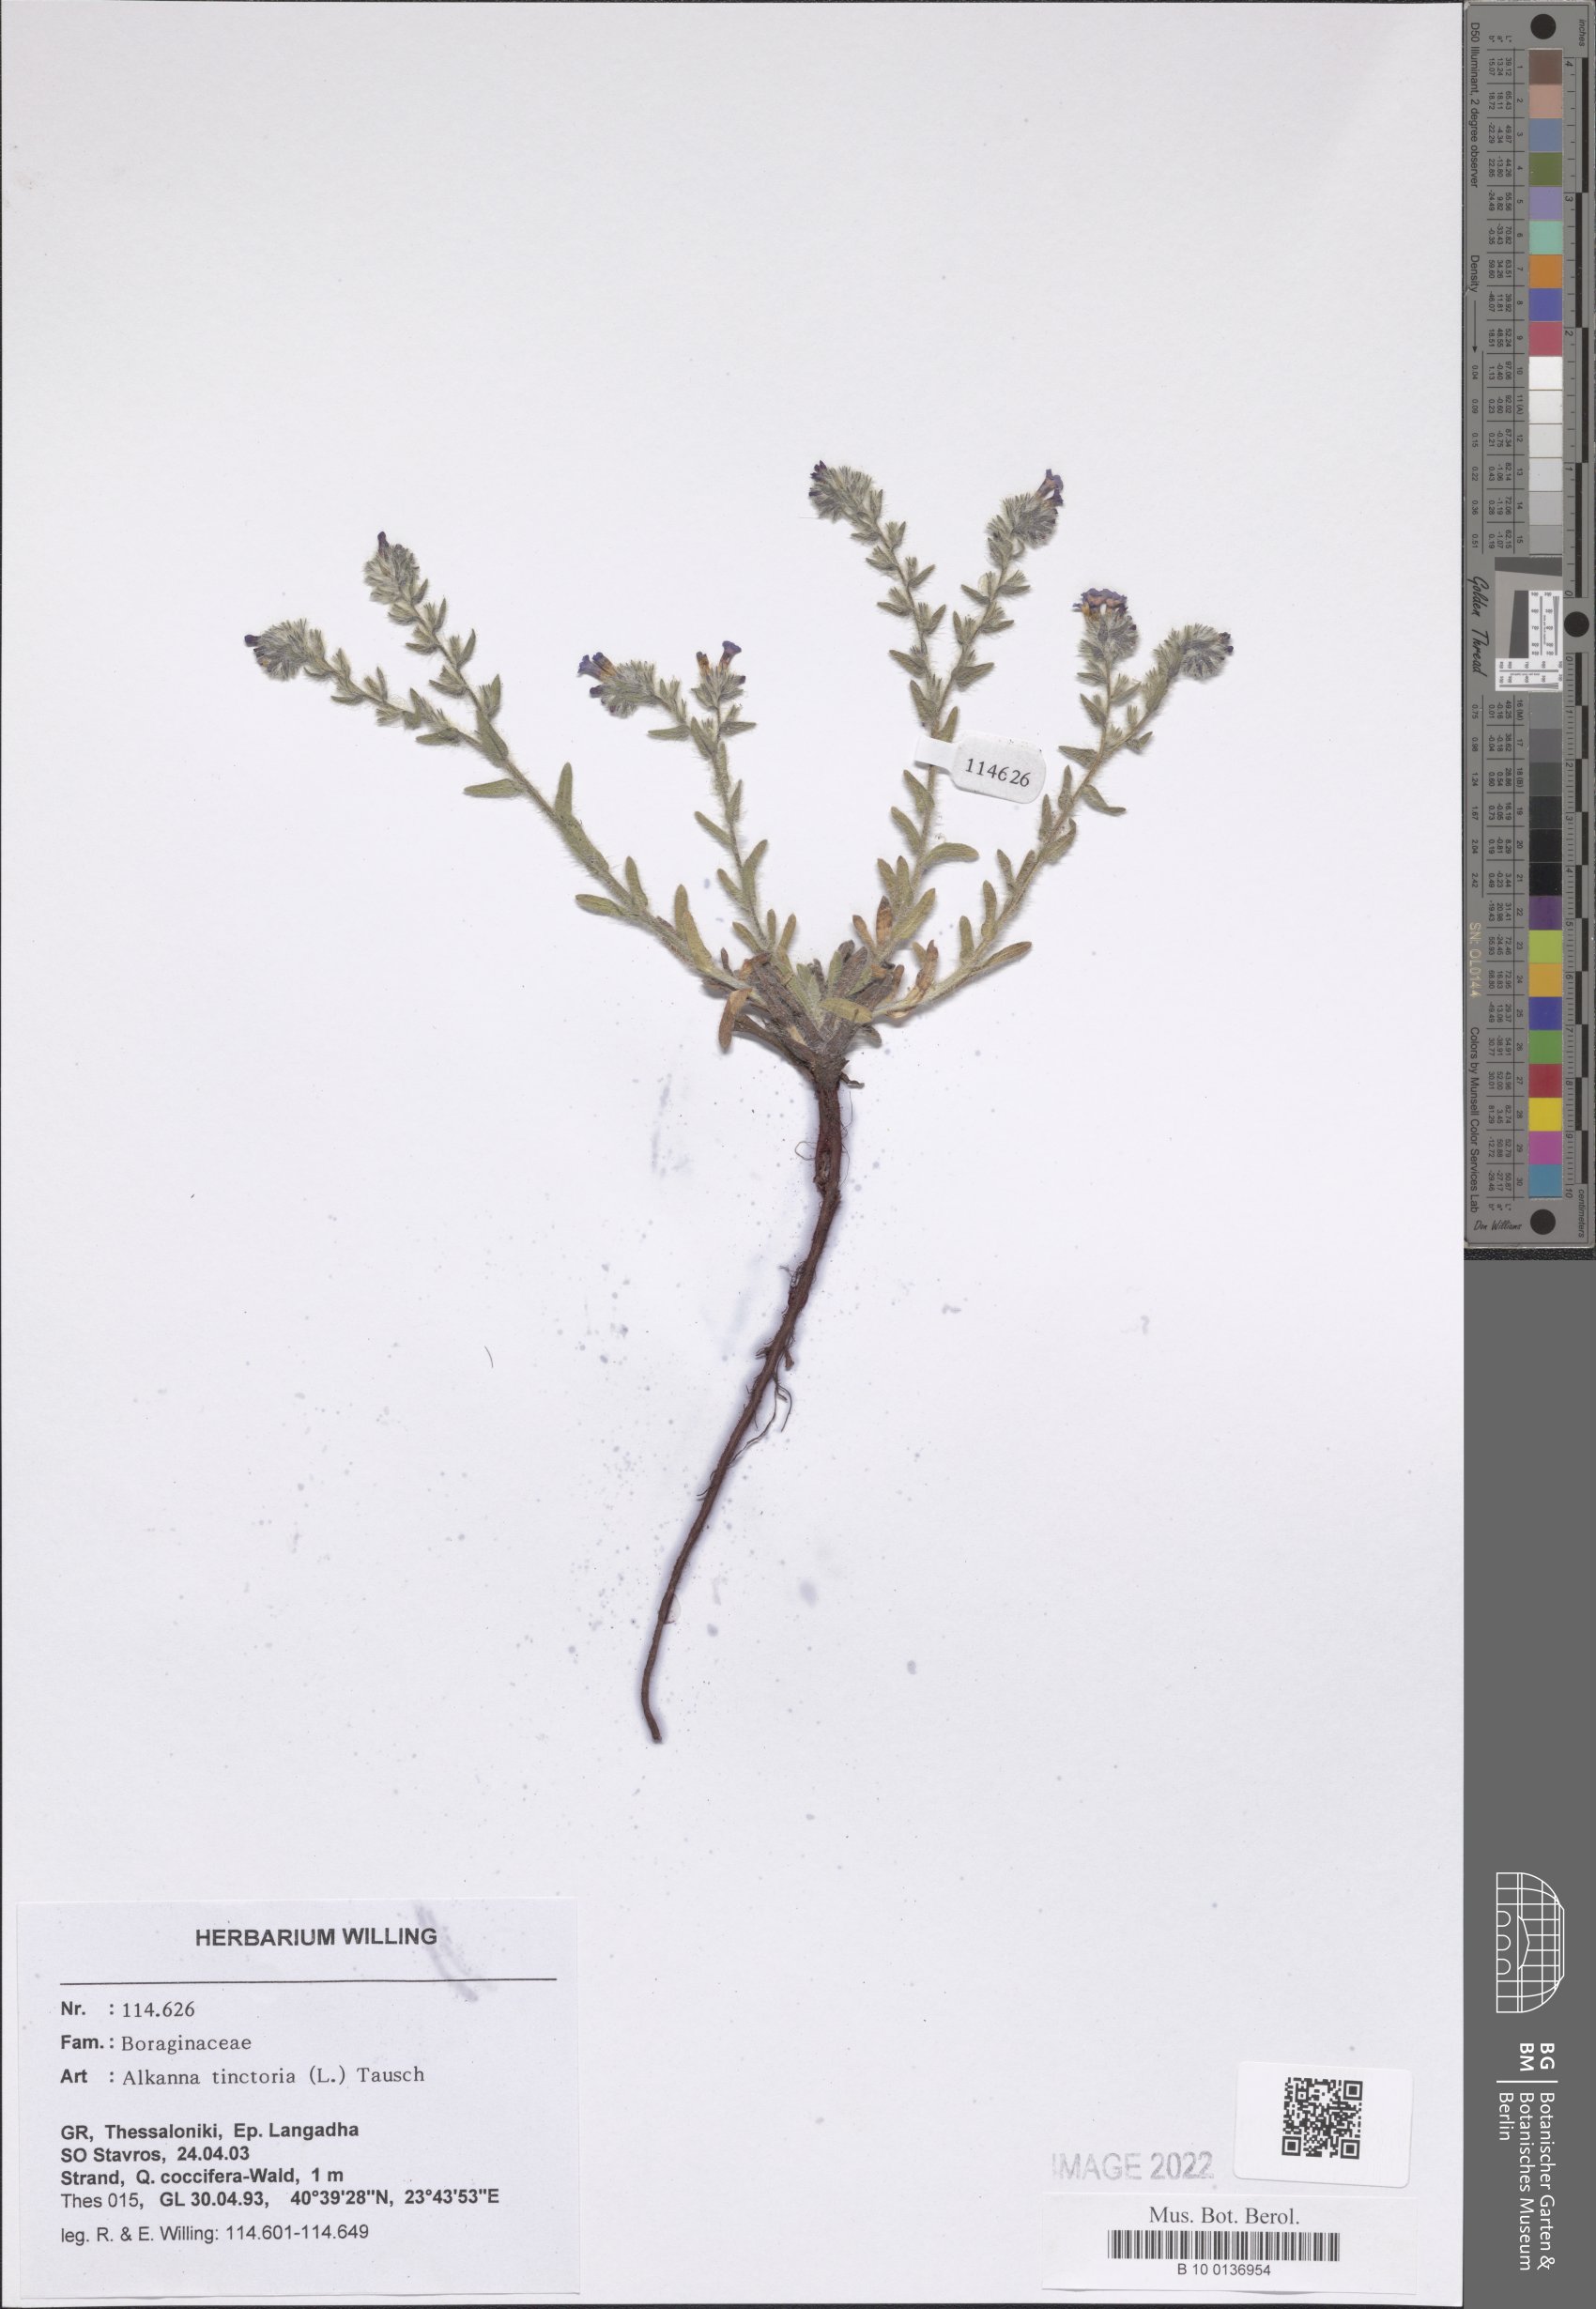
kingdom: Plantae
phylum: Tracheophyta
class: Magnoliopsida
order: Boraginales
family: Boraginaceae
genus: Alkanna
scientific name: Alkanna tinctoria
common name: Dyer's-alkanet
